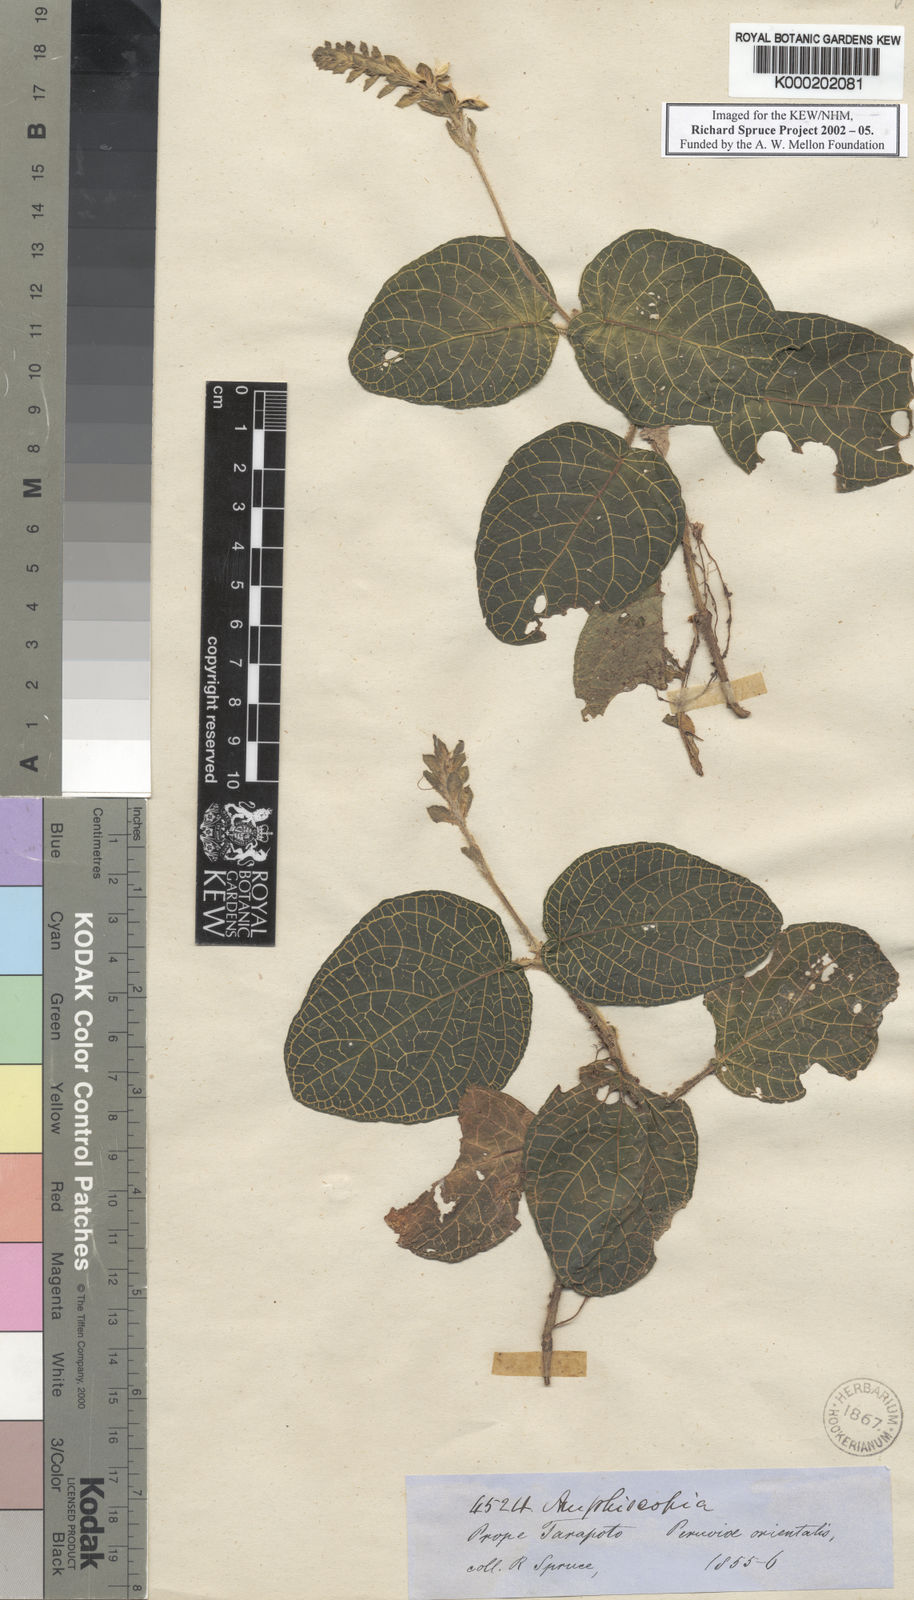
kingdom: Plantae
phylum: Tracheophyta
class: Magnoliopsida
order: Lamiales
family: Acanthaceae
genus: Fittonia
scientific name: Fittonia albivenis
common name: Mosaic-plant
